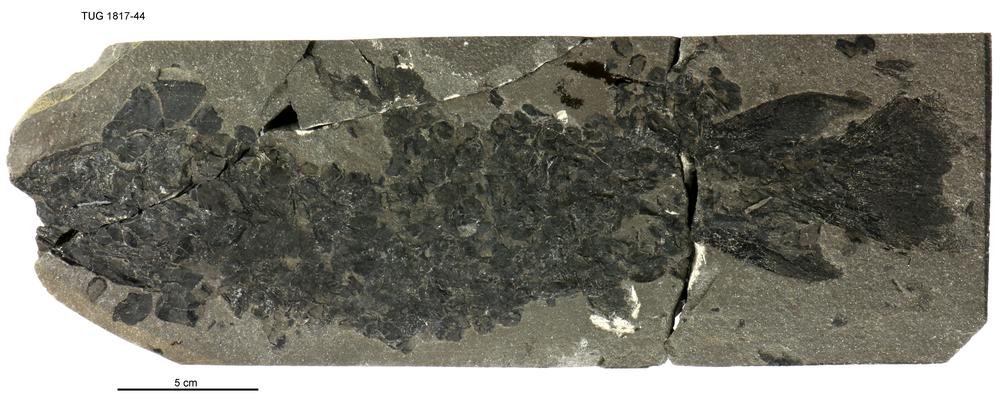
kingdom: Animalia
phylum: Chordata
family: Eusthenopteridae
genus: Tristichopterus
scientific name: Tristichopterus alatus
